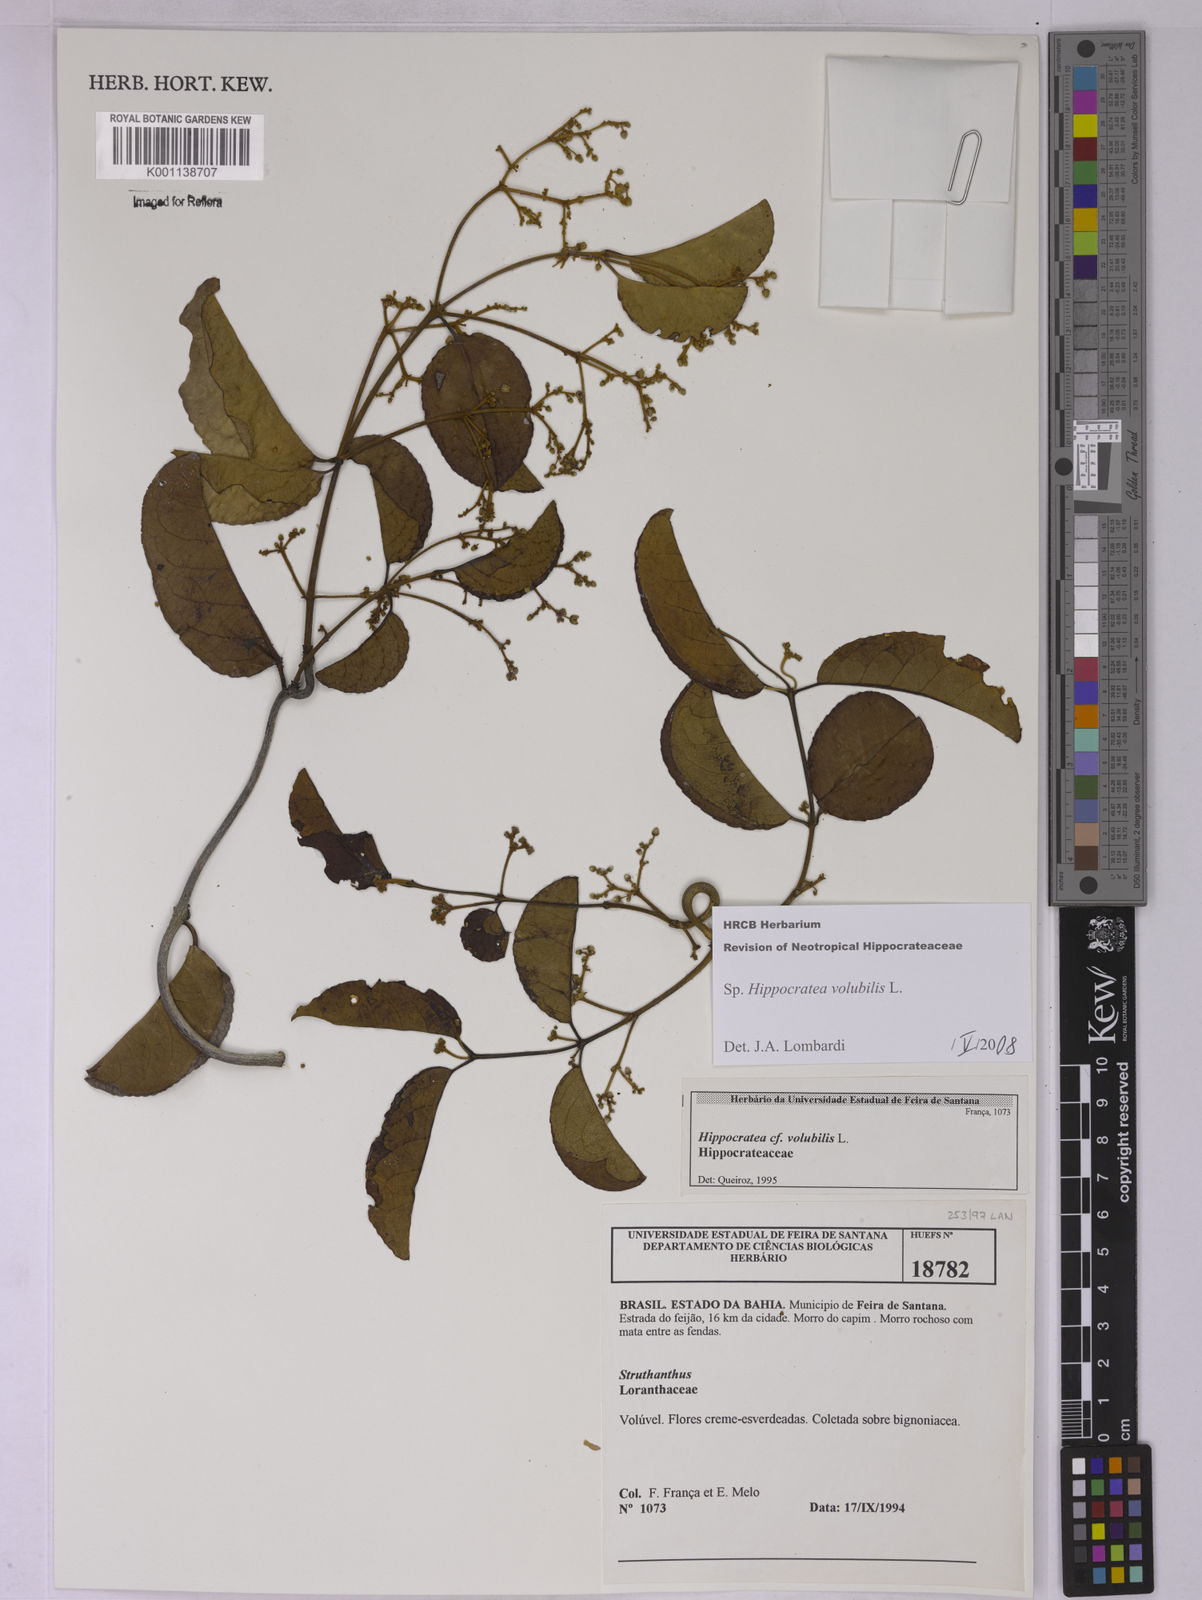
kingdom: Plantae
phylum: Tracheophyta
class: Magnoliopsida
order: Celastrales
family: Celastraceae
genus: Hippocratea
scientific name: Hippocratea volubilis
